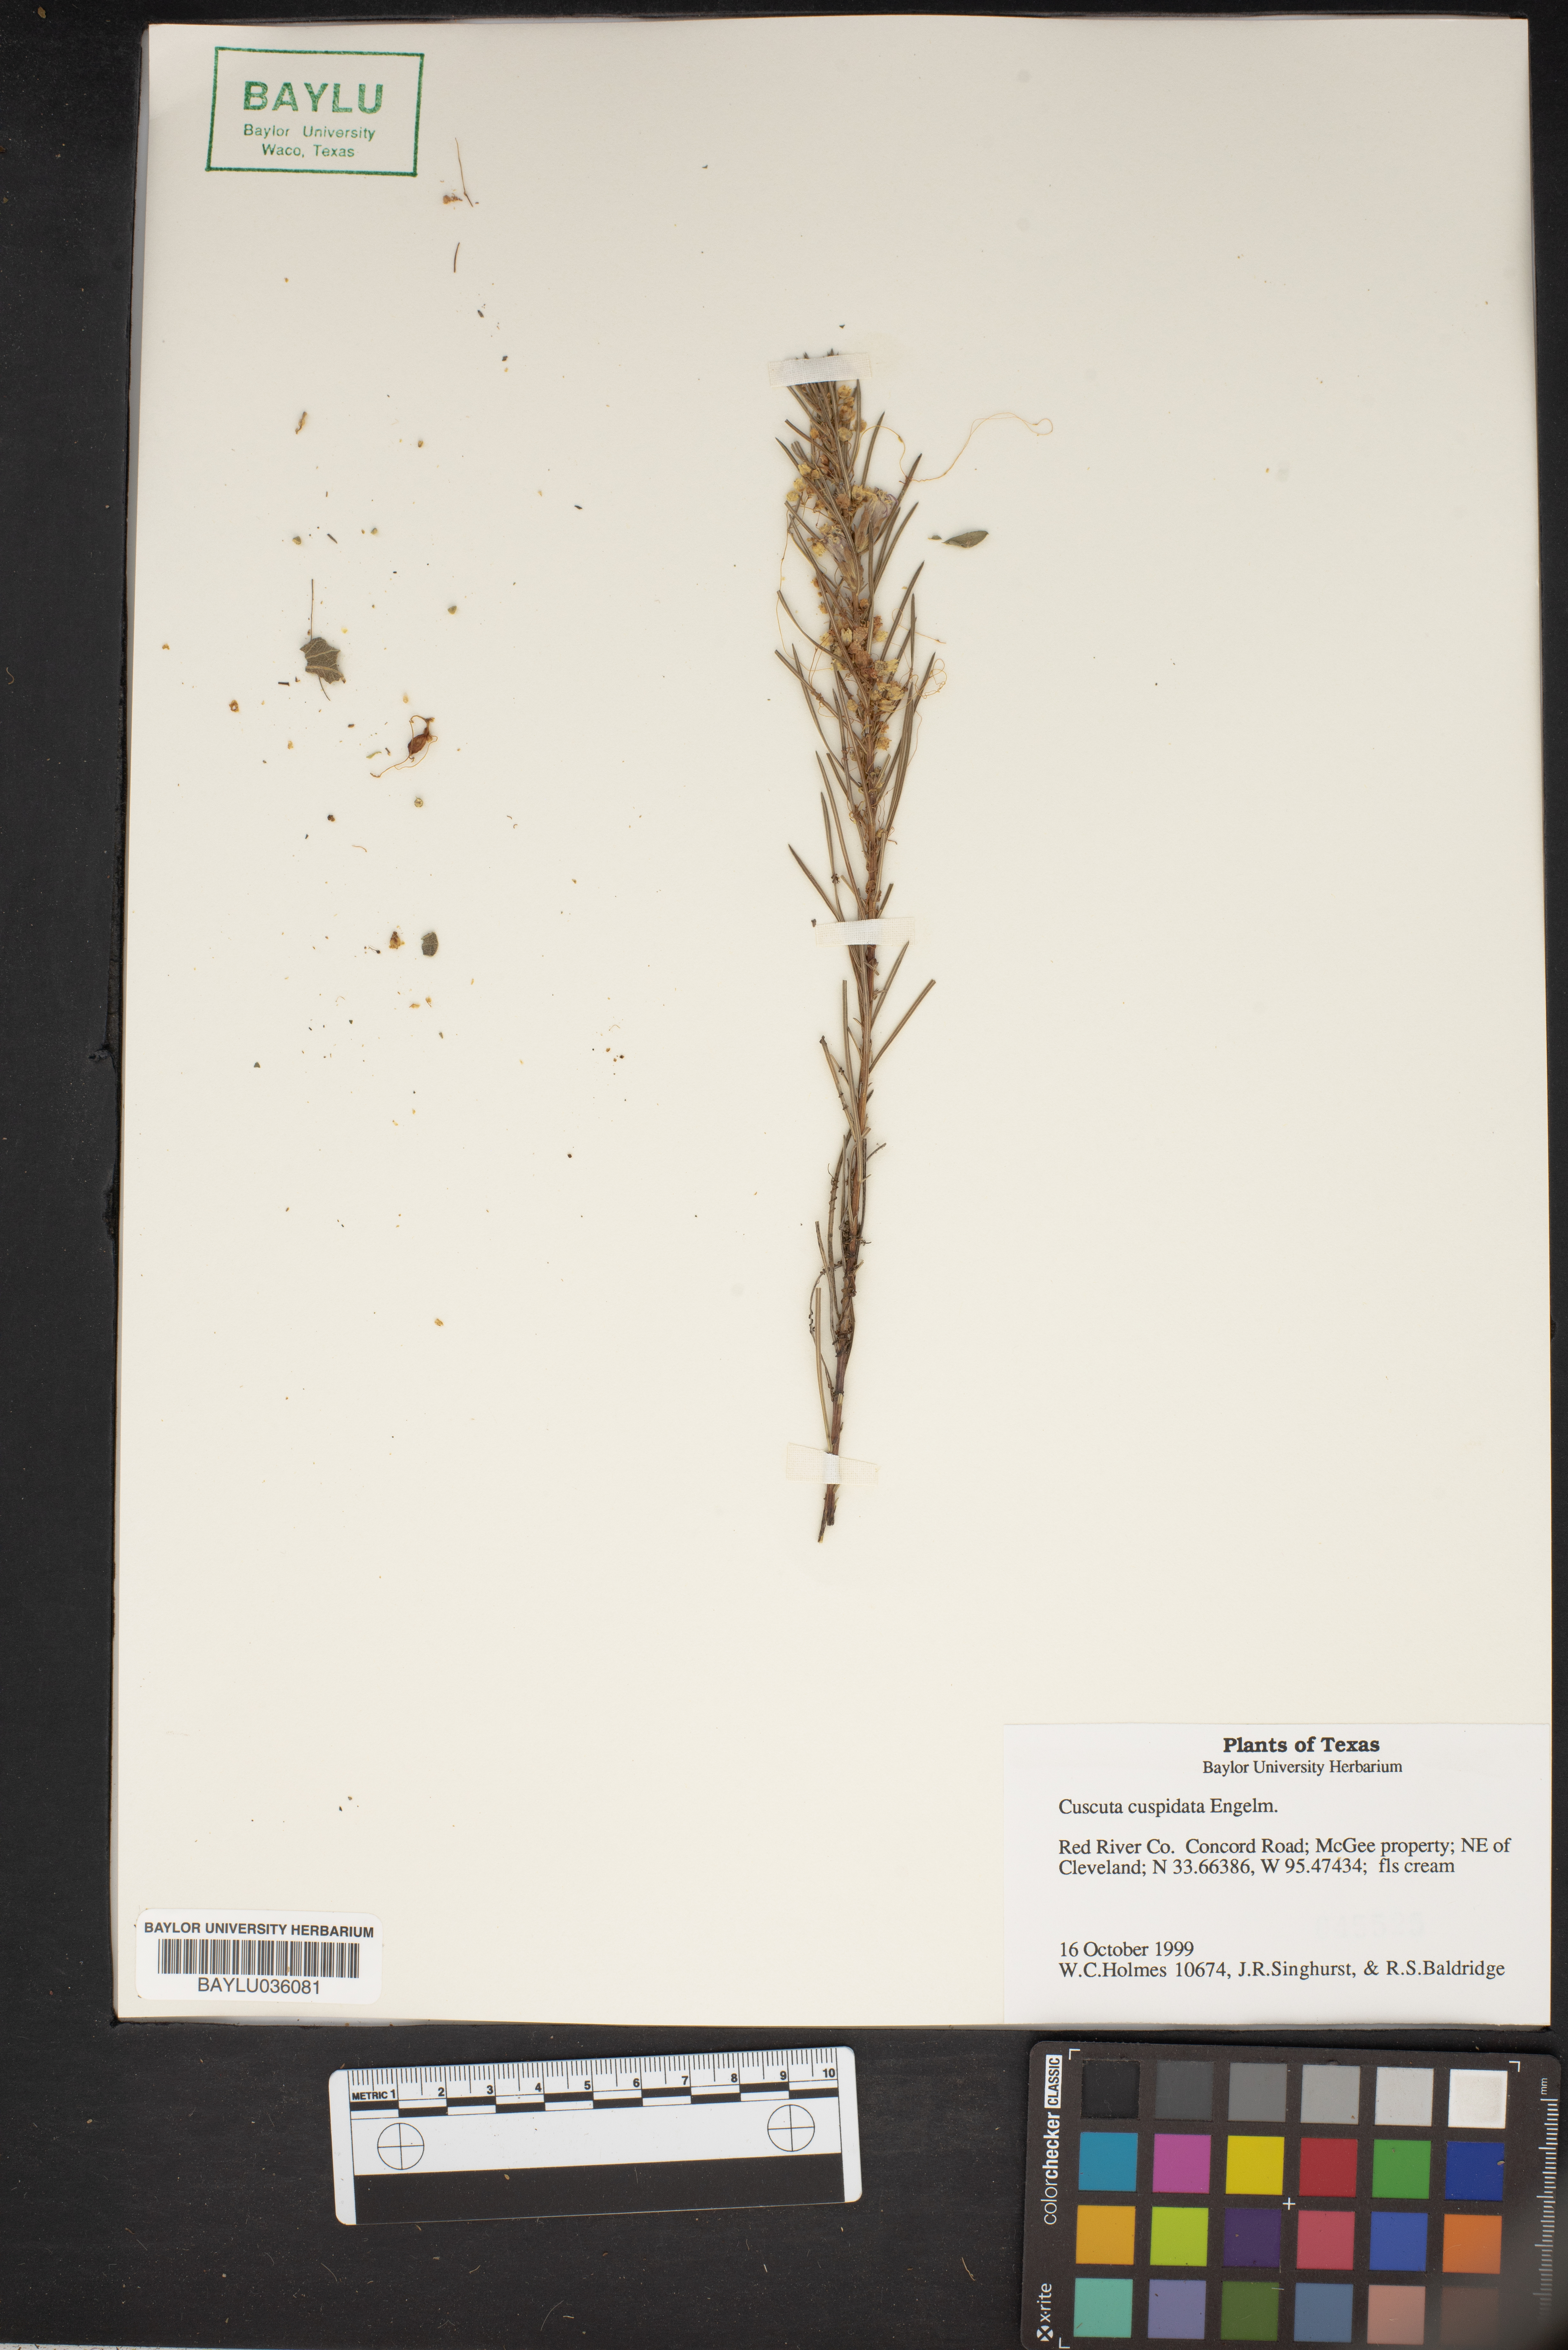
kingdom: Plantae
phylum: Tracheophyta
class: Magnoliopsida
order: Solanales
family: Convolvulaceae
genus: Cuscuta
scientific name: Cuscuta cuspidata
